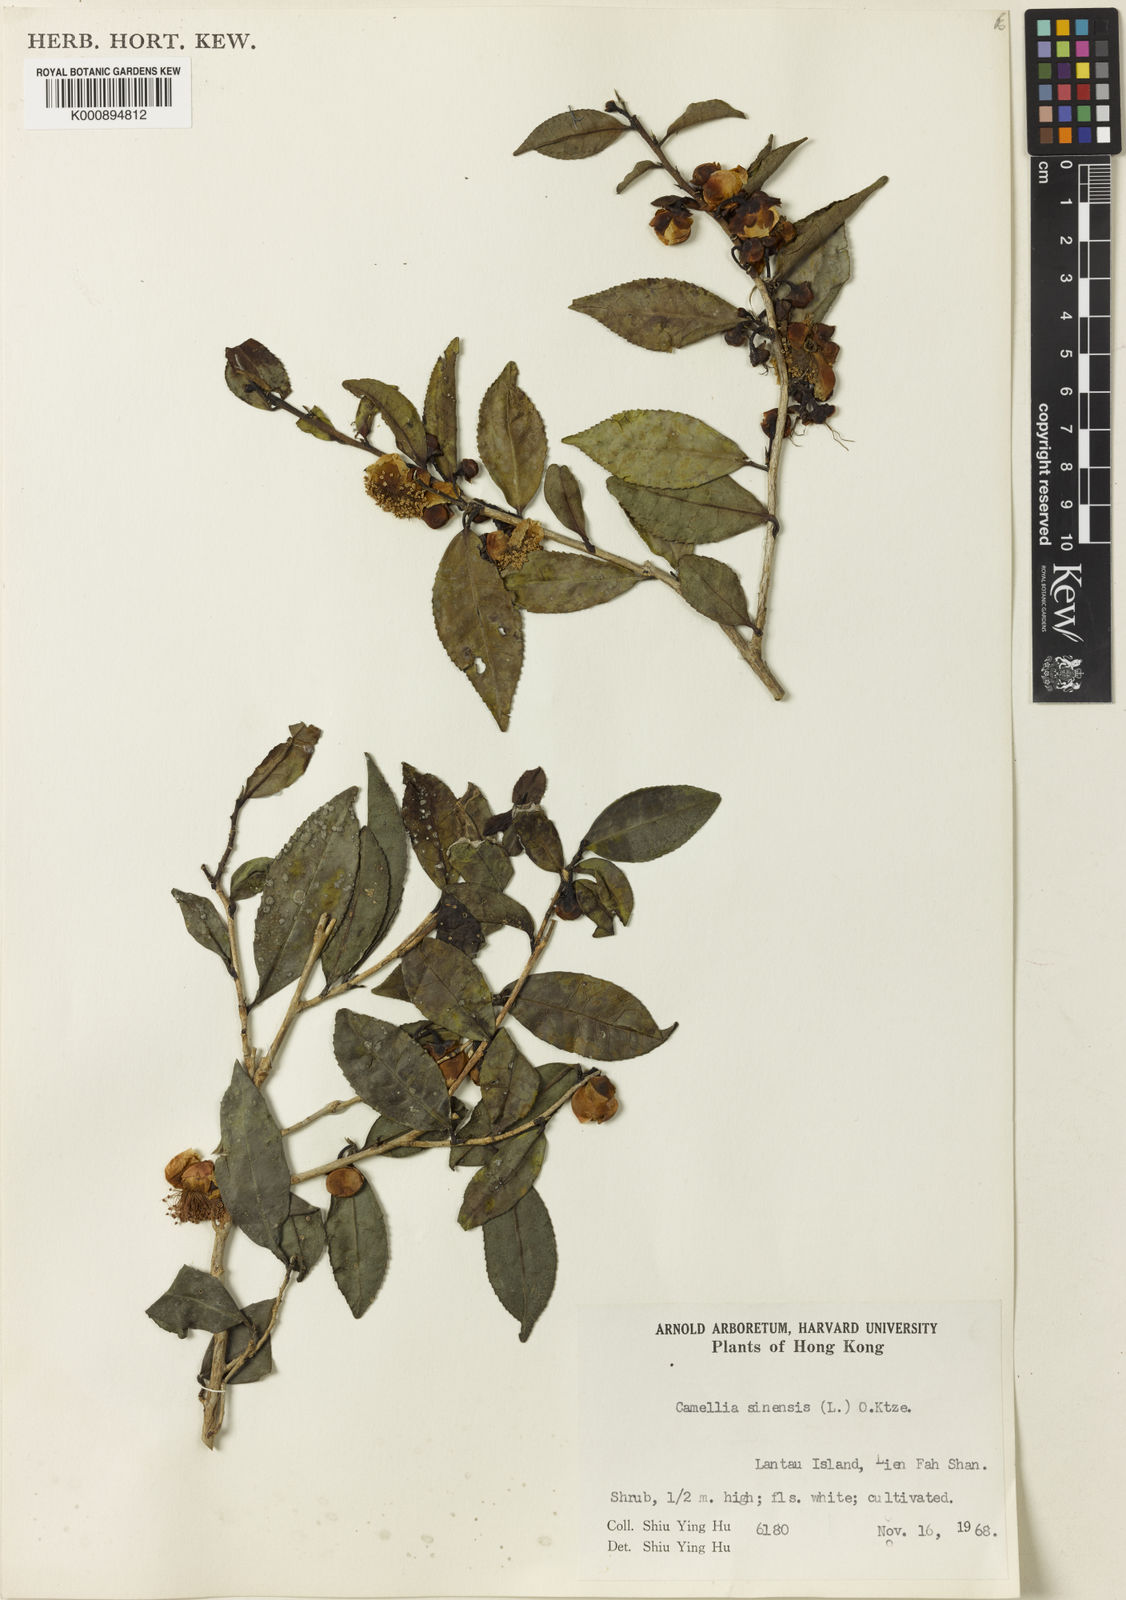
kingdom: Plantae
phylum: Tracheophyta
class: Magnoliopsida
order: Ericales
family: Theaceae
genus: Camellia
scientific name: Camellia sinensis
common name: Tea
